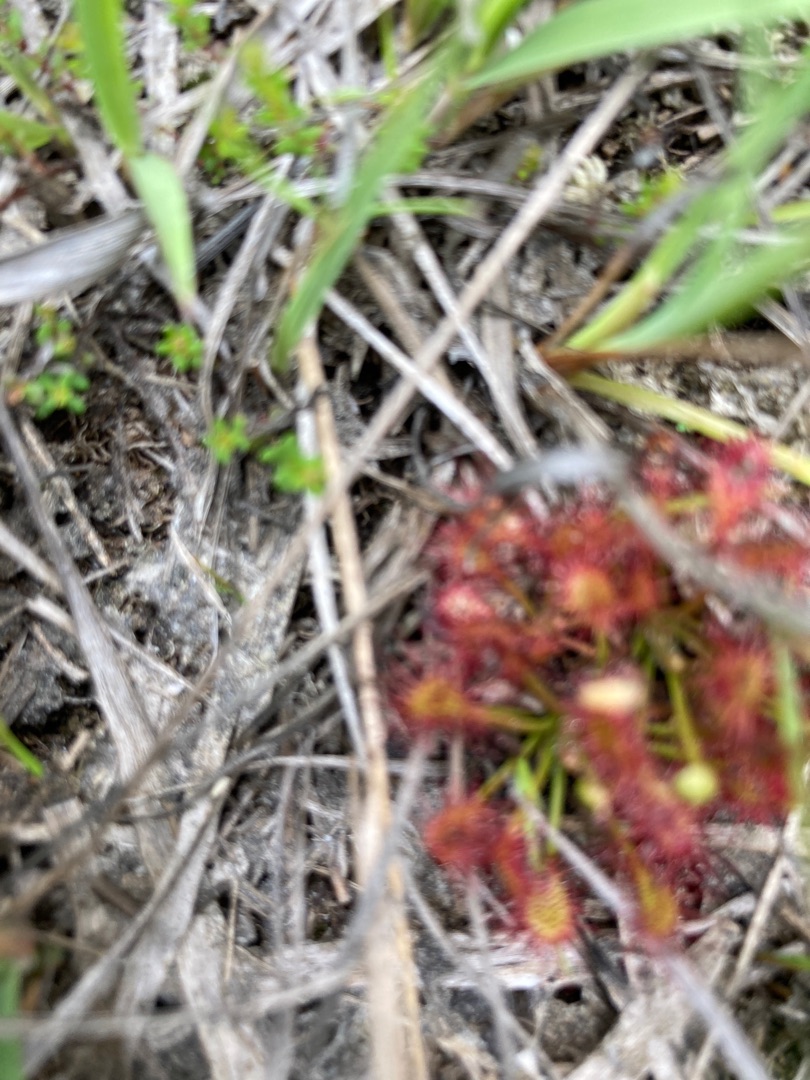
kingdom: Plantae
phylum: Tracheophyta
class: Magnoliopsida
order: Caryophyllales
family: Droseraceae
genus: Drosera
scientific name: Drosera rotundifolia
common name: Rundbladet soldug
